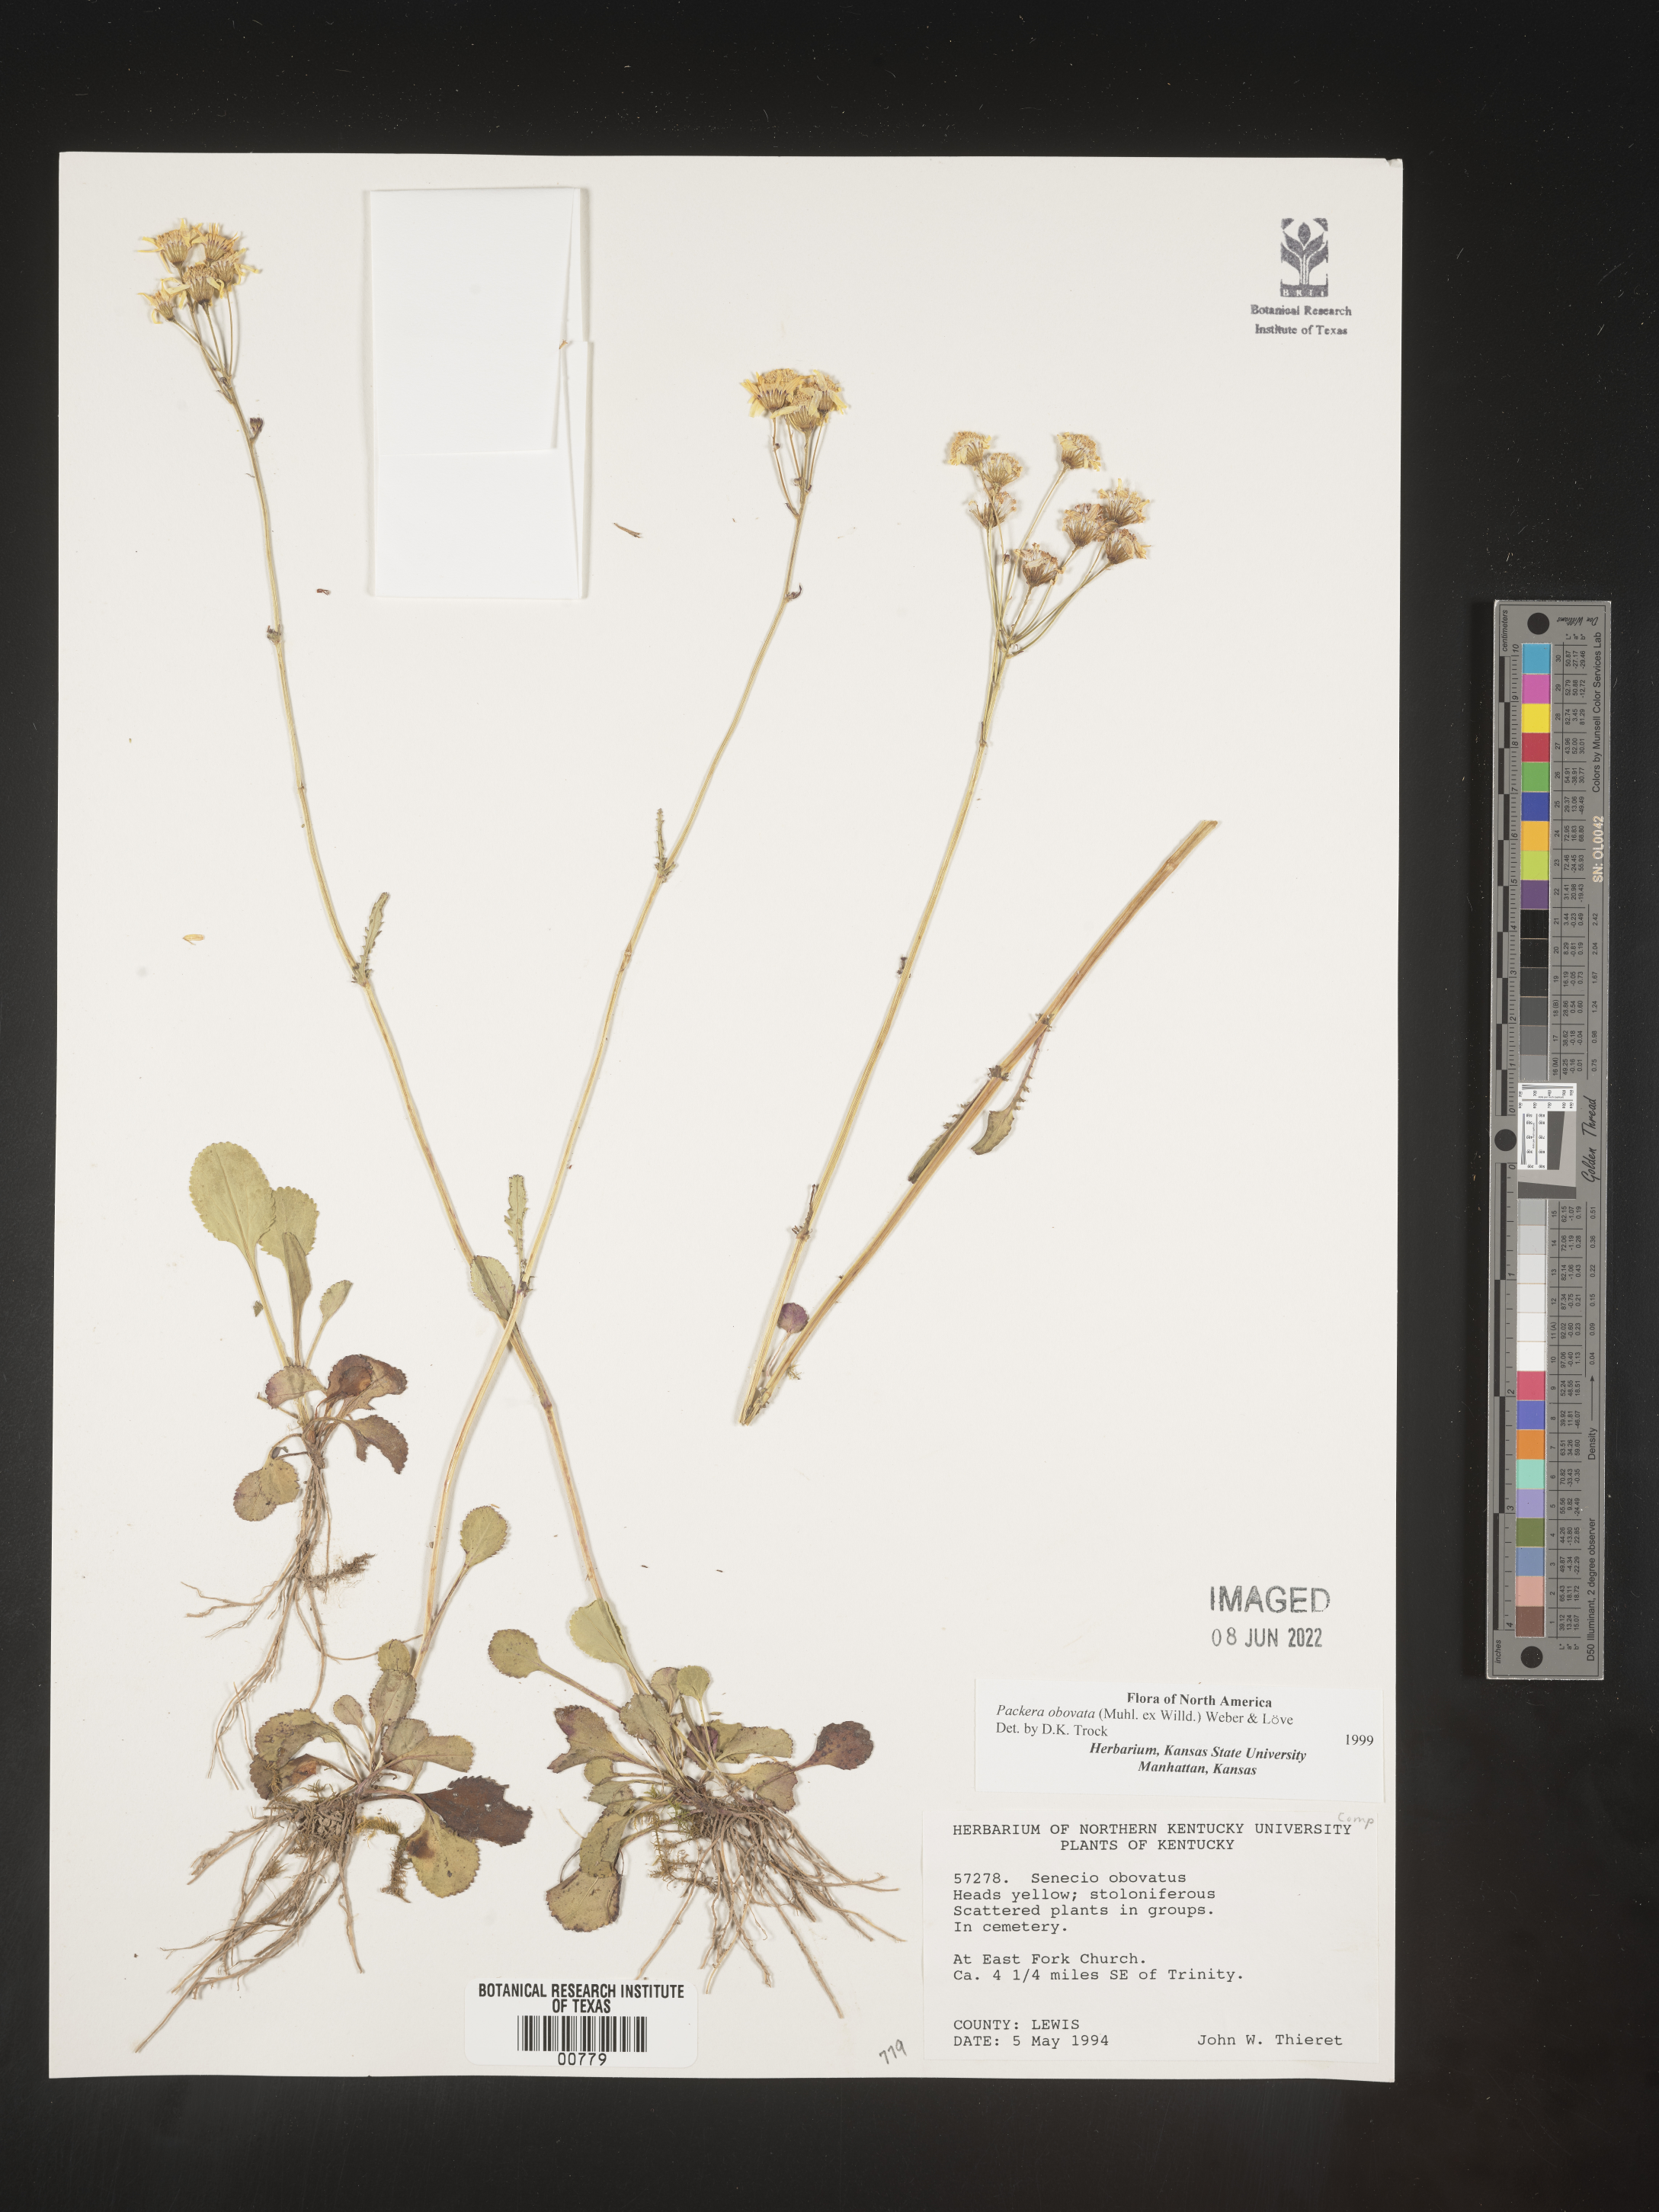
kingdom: Plantae
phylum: Tracheophyta
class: Magnoliopsida
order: Asterales
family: Asteraceae
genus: Packera
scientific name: Packera obovata
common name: Round-leaf ragwort
